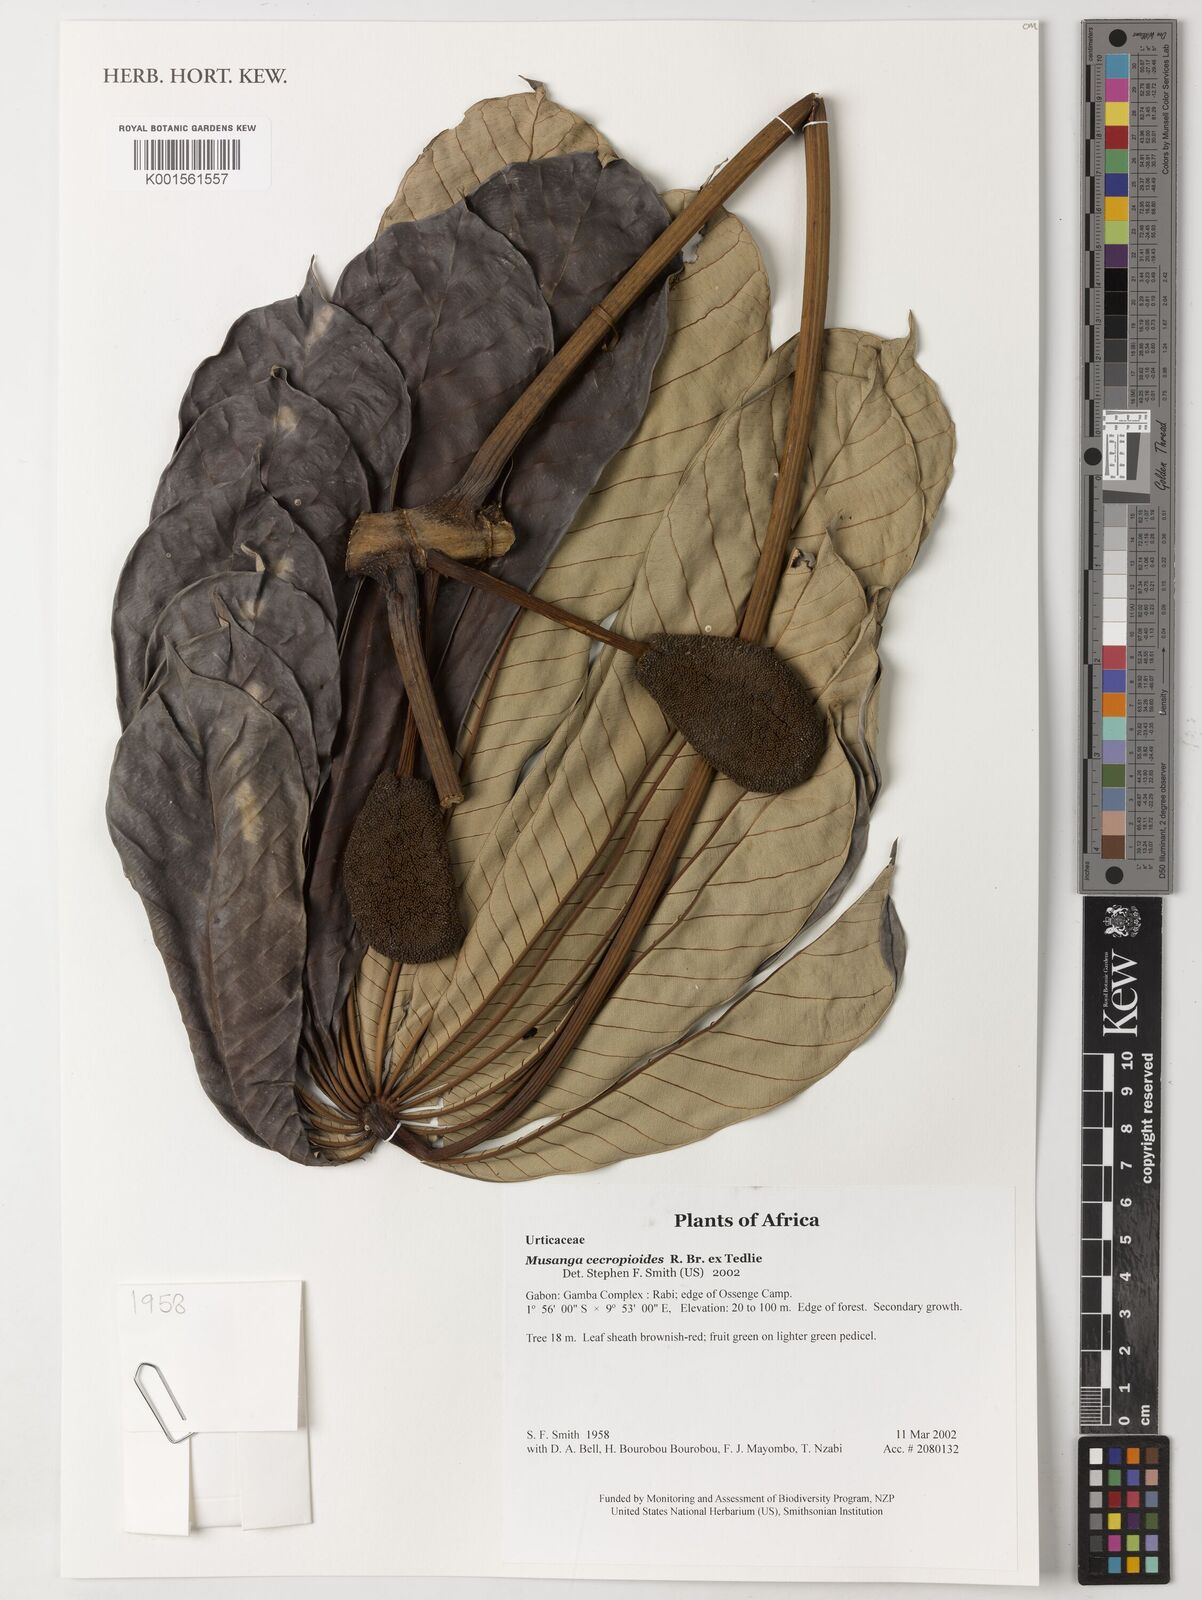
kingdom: Plantae
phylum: Tracheophyta
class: Magnoliopsida
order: Rosales
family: Urticaceae
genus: Musanga
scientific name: Musanga cecropioides
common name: African corkwood
